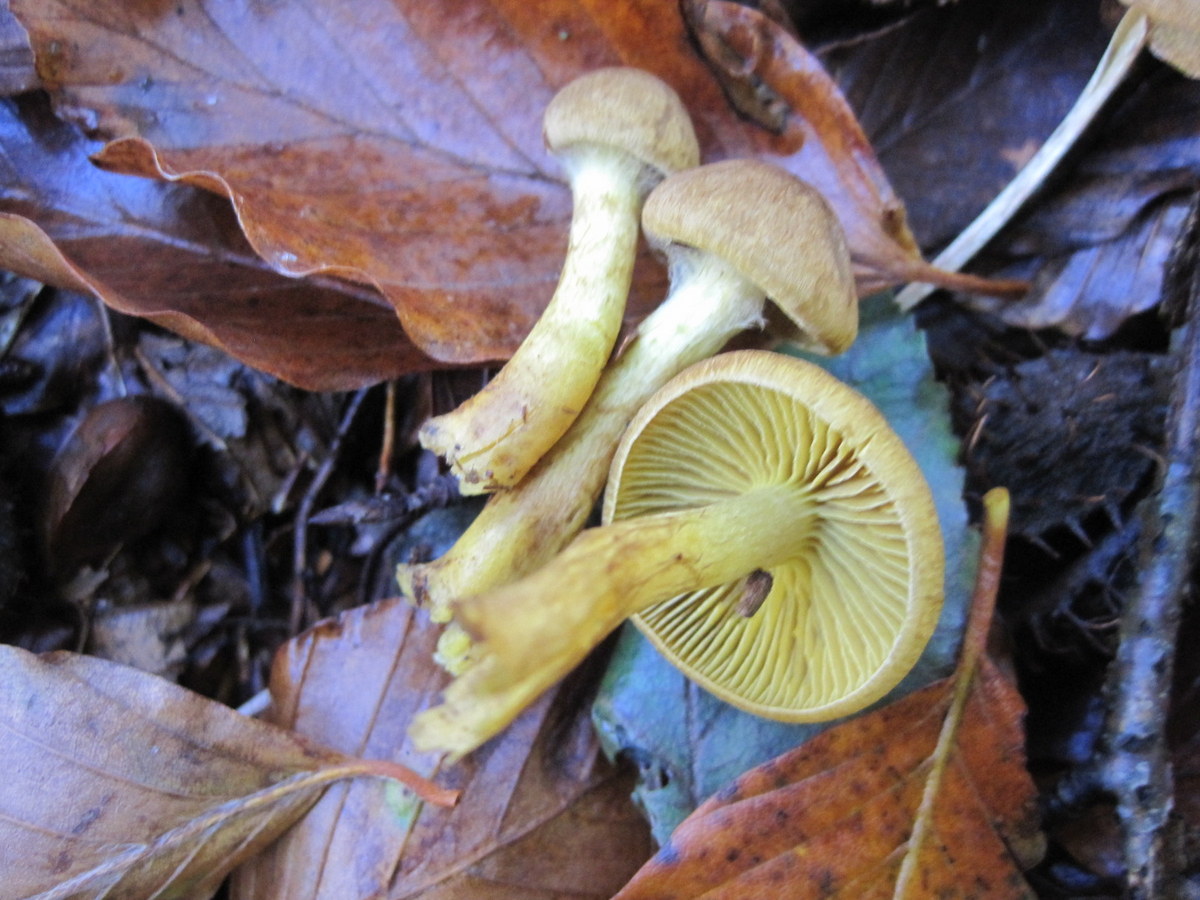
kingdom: Fungi
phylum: Basidiomycota
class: Agaricomycetes
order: Agaricales
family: Cortinariaceae
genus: Cortinarius
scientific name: Cortinarius
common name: gulbladet slørhat
